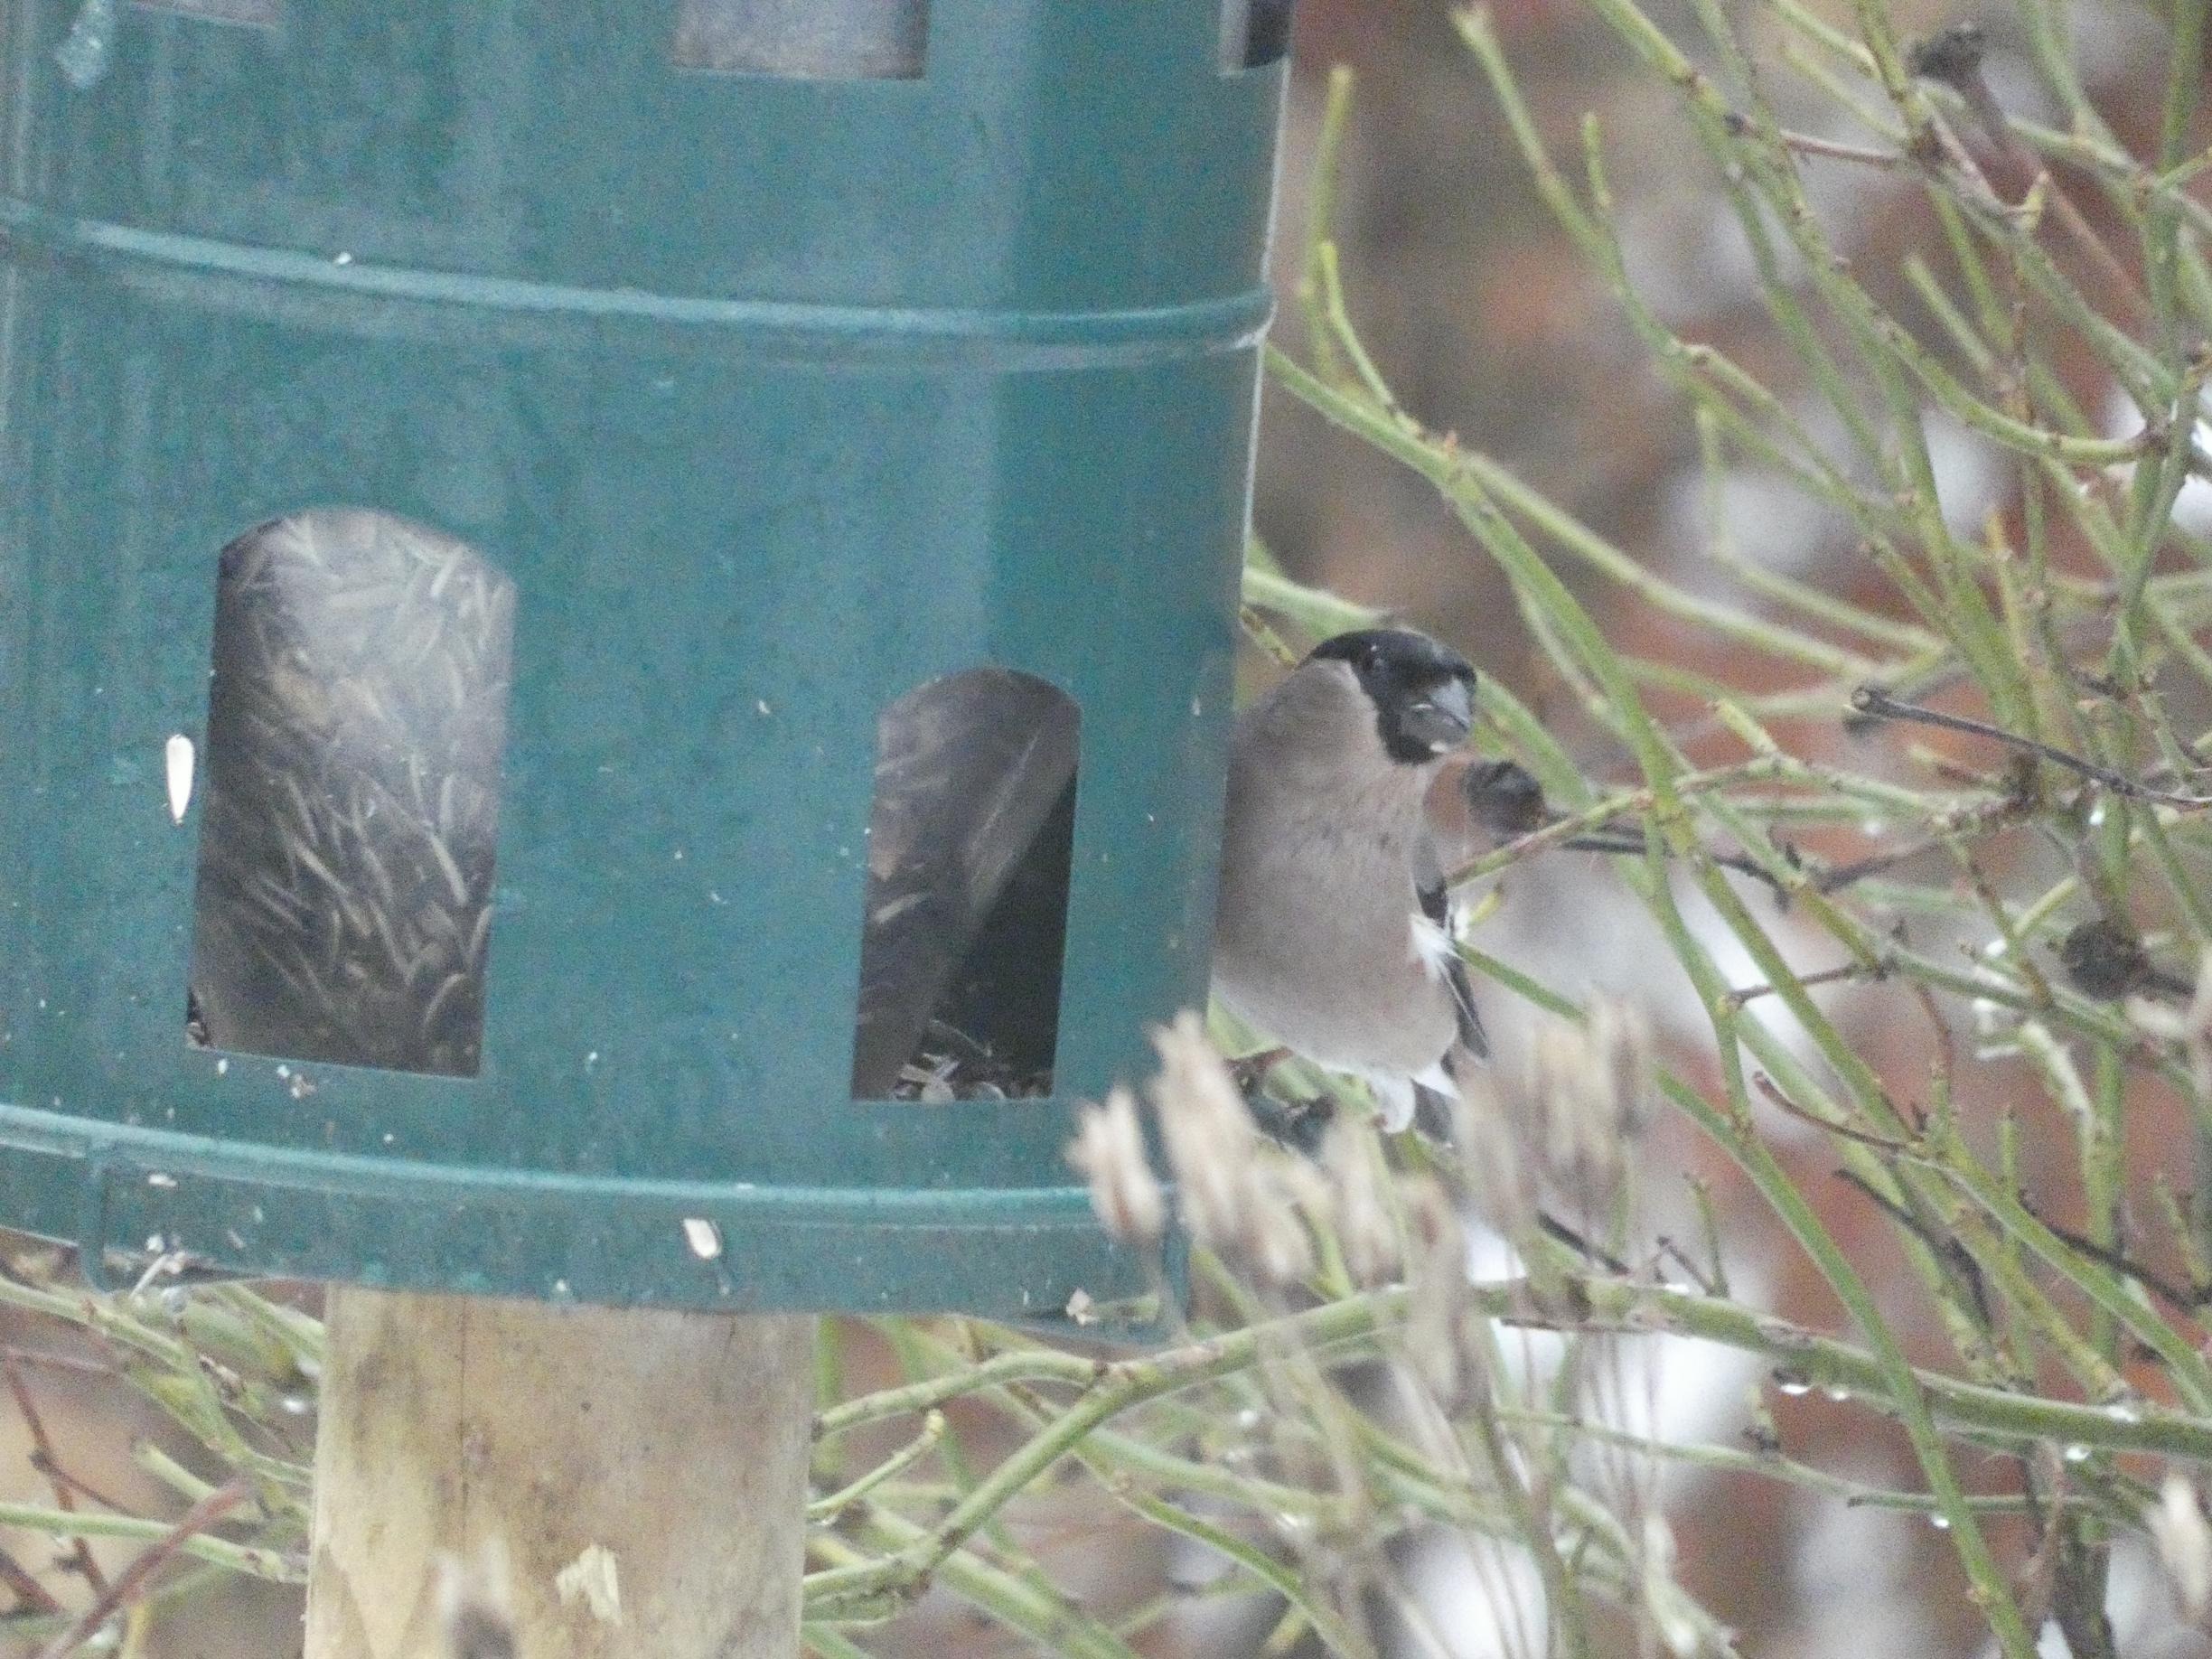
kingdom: Animalia
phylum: Chordata
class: Aves
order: Passeriformes
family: Fringillidae
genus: Pyrrhula
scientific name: Pyrrhula pyrrhula
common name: Dompap
